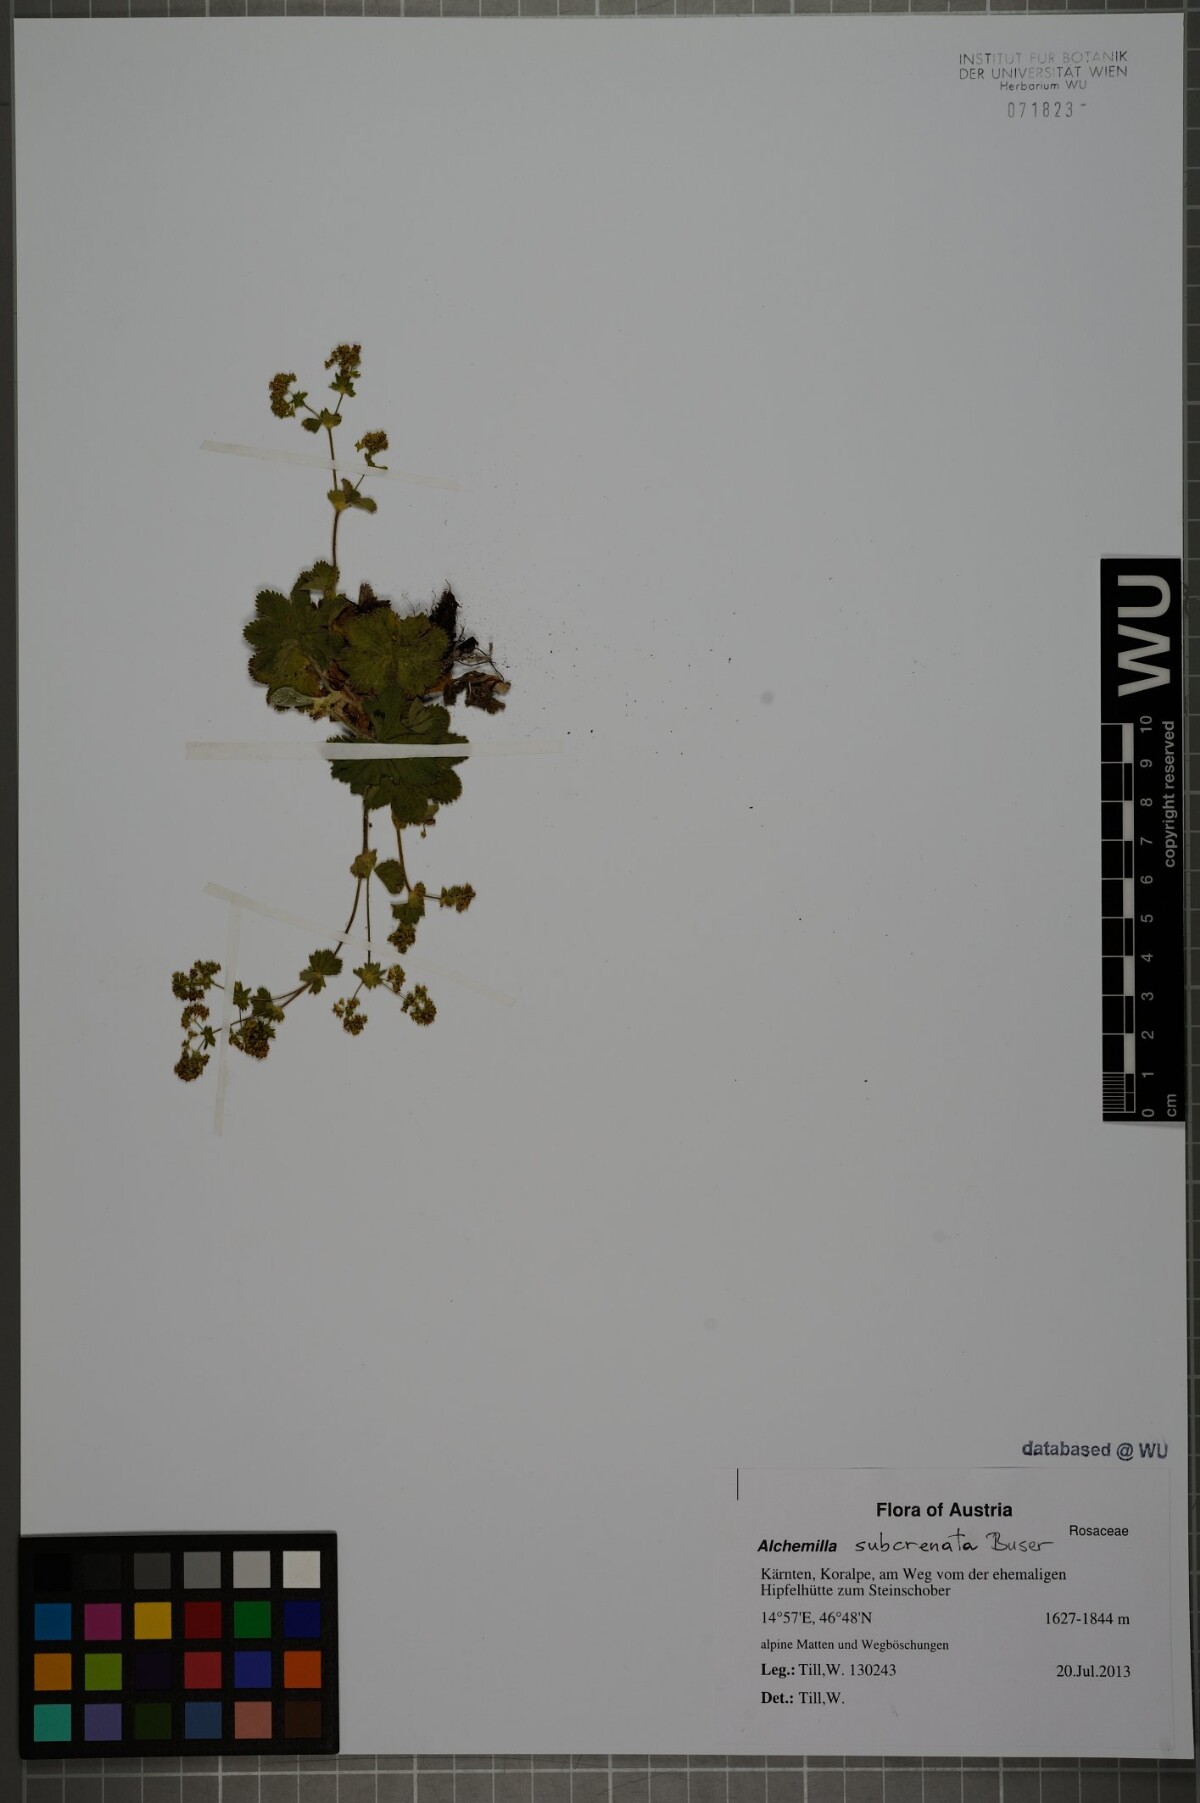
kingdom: Plantae
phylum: Tracheophyta
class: Magnoliopsida
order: Rosales
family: Rosaceae
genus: Alchemilla
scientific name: Alchemilla subcrenata
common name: Broadtooth lady's mantle
